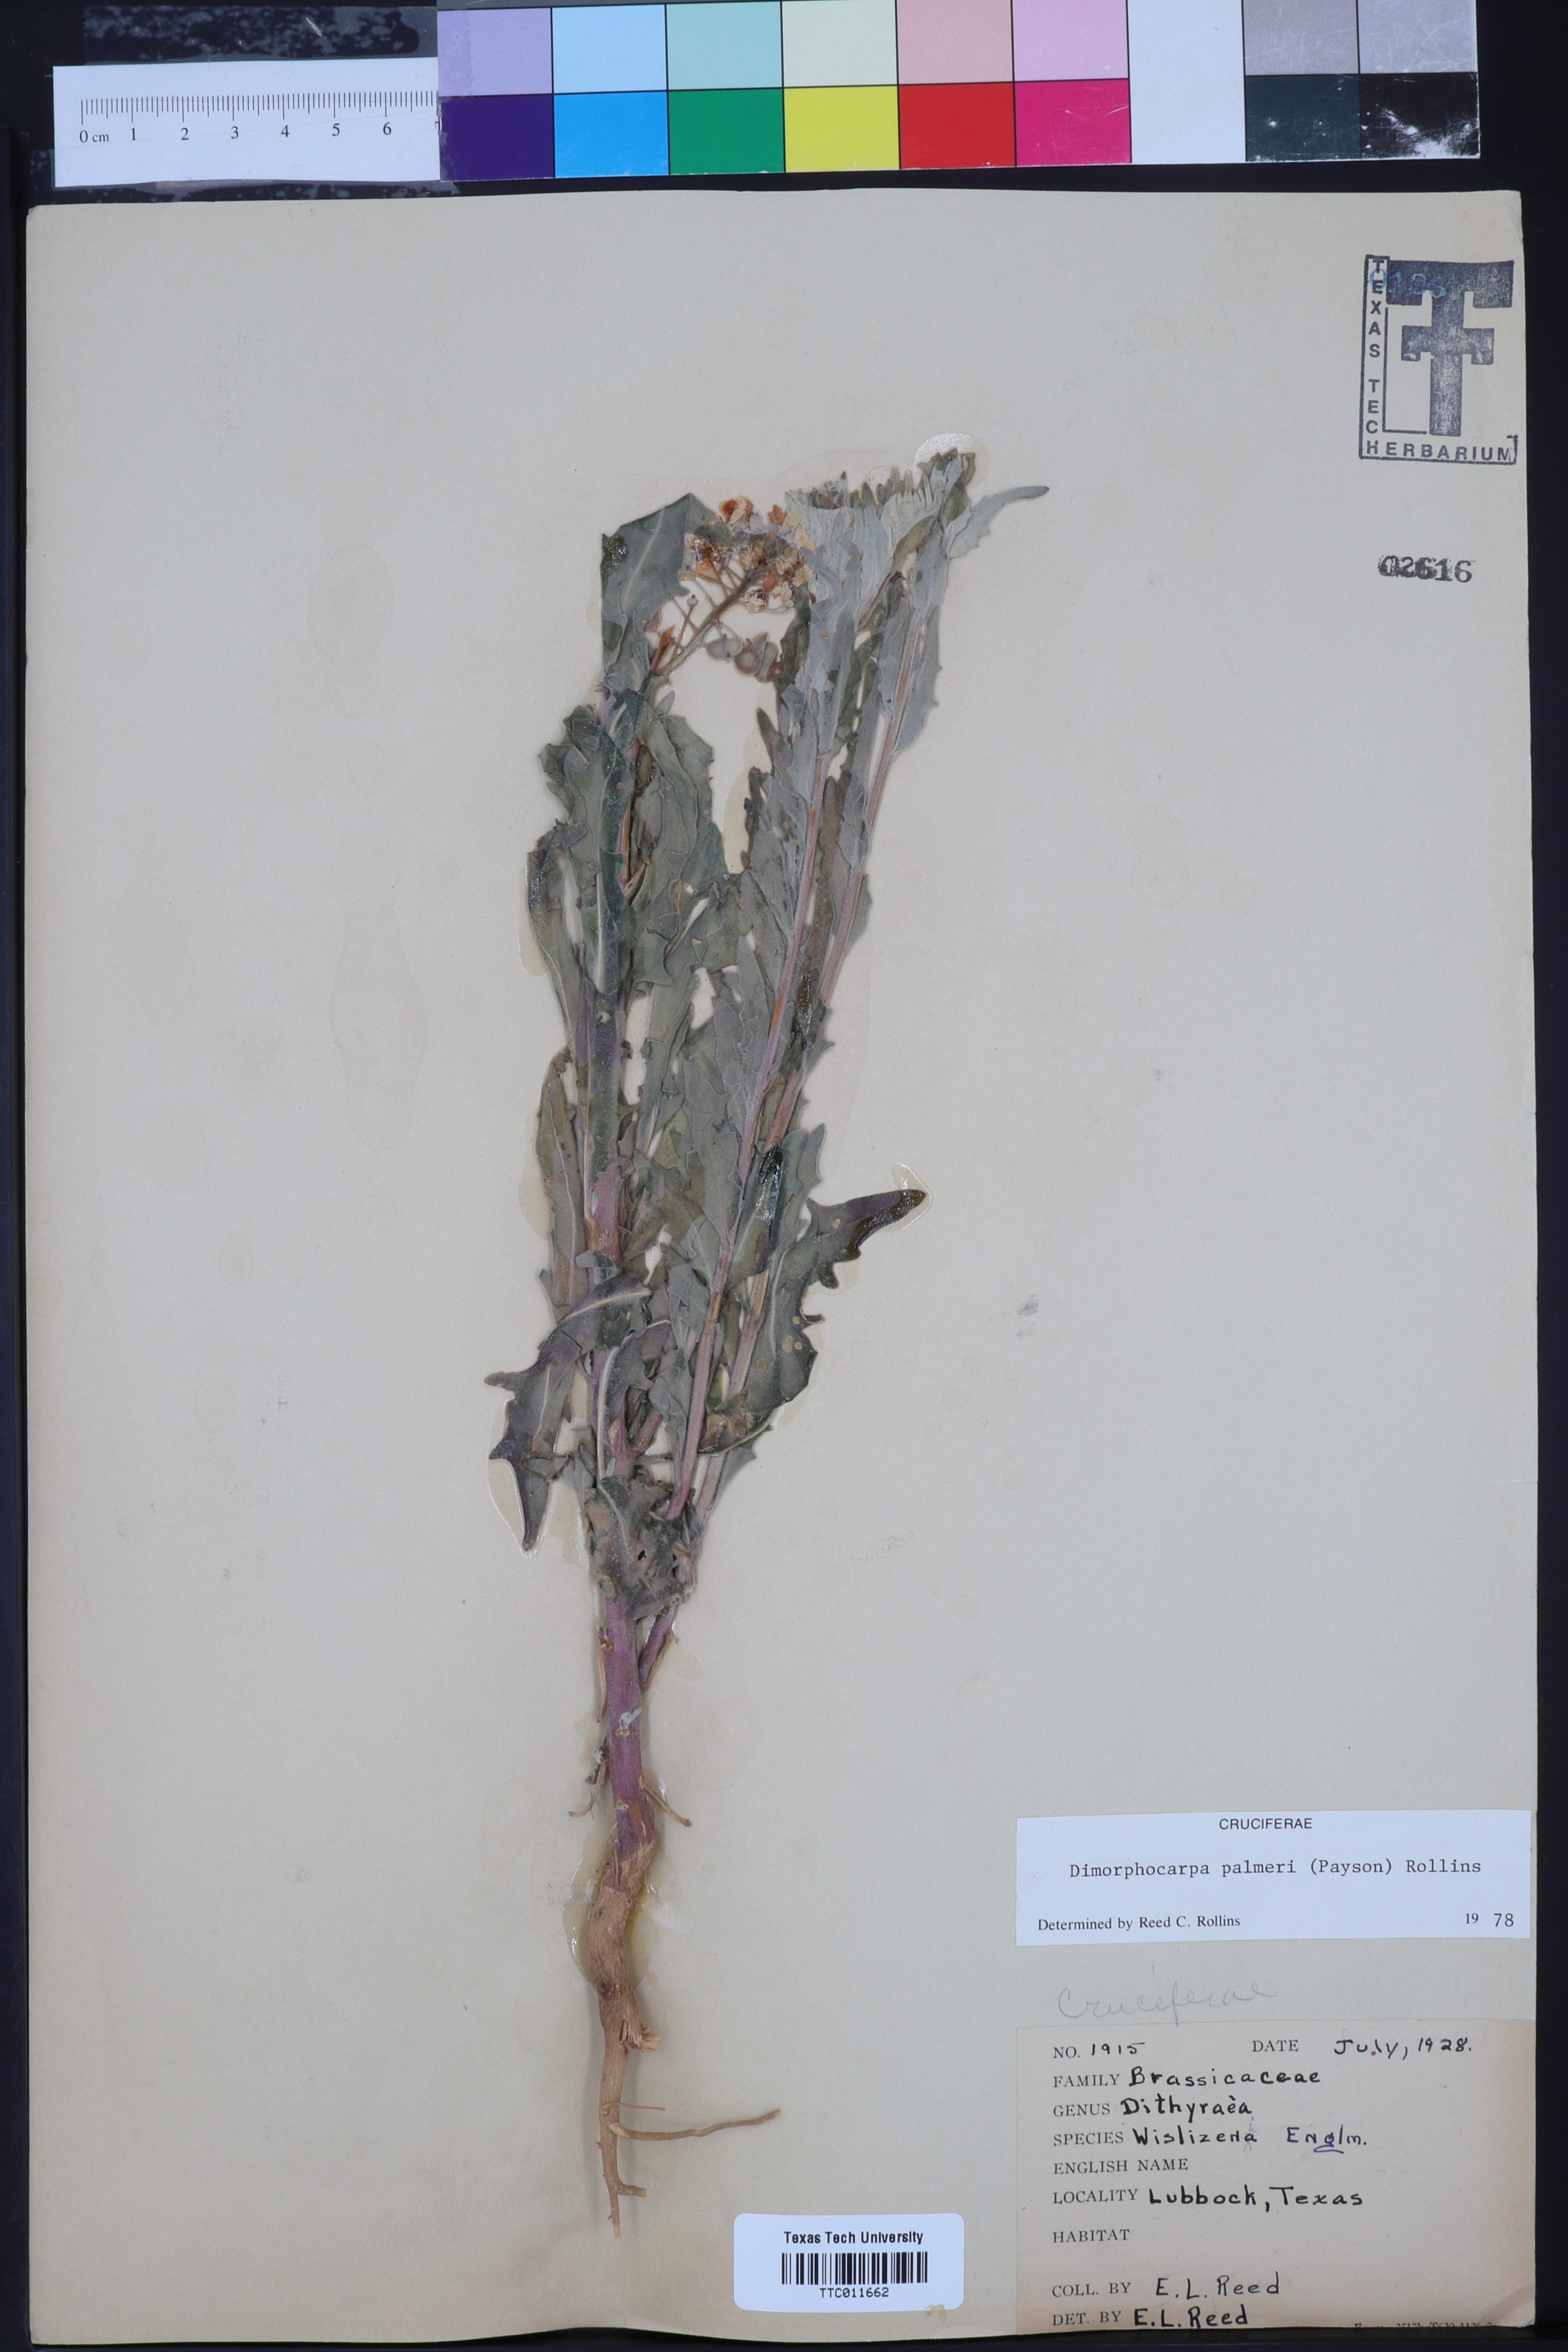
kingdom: Plantae
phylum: Tracheophyta
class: Magnoliopsida
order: Brassicales
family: Brassicaceae
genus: Dimorphocarpa
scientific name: Dimorphocarpa candicans
